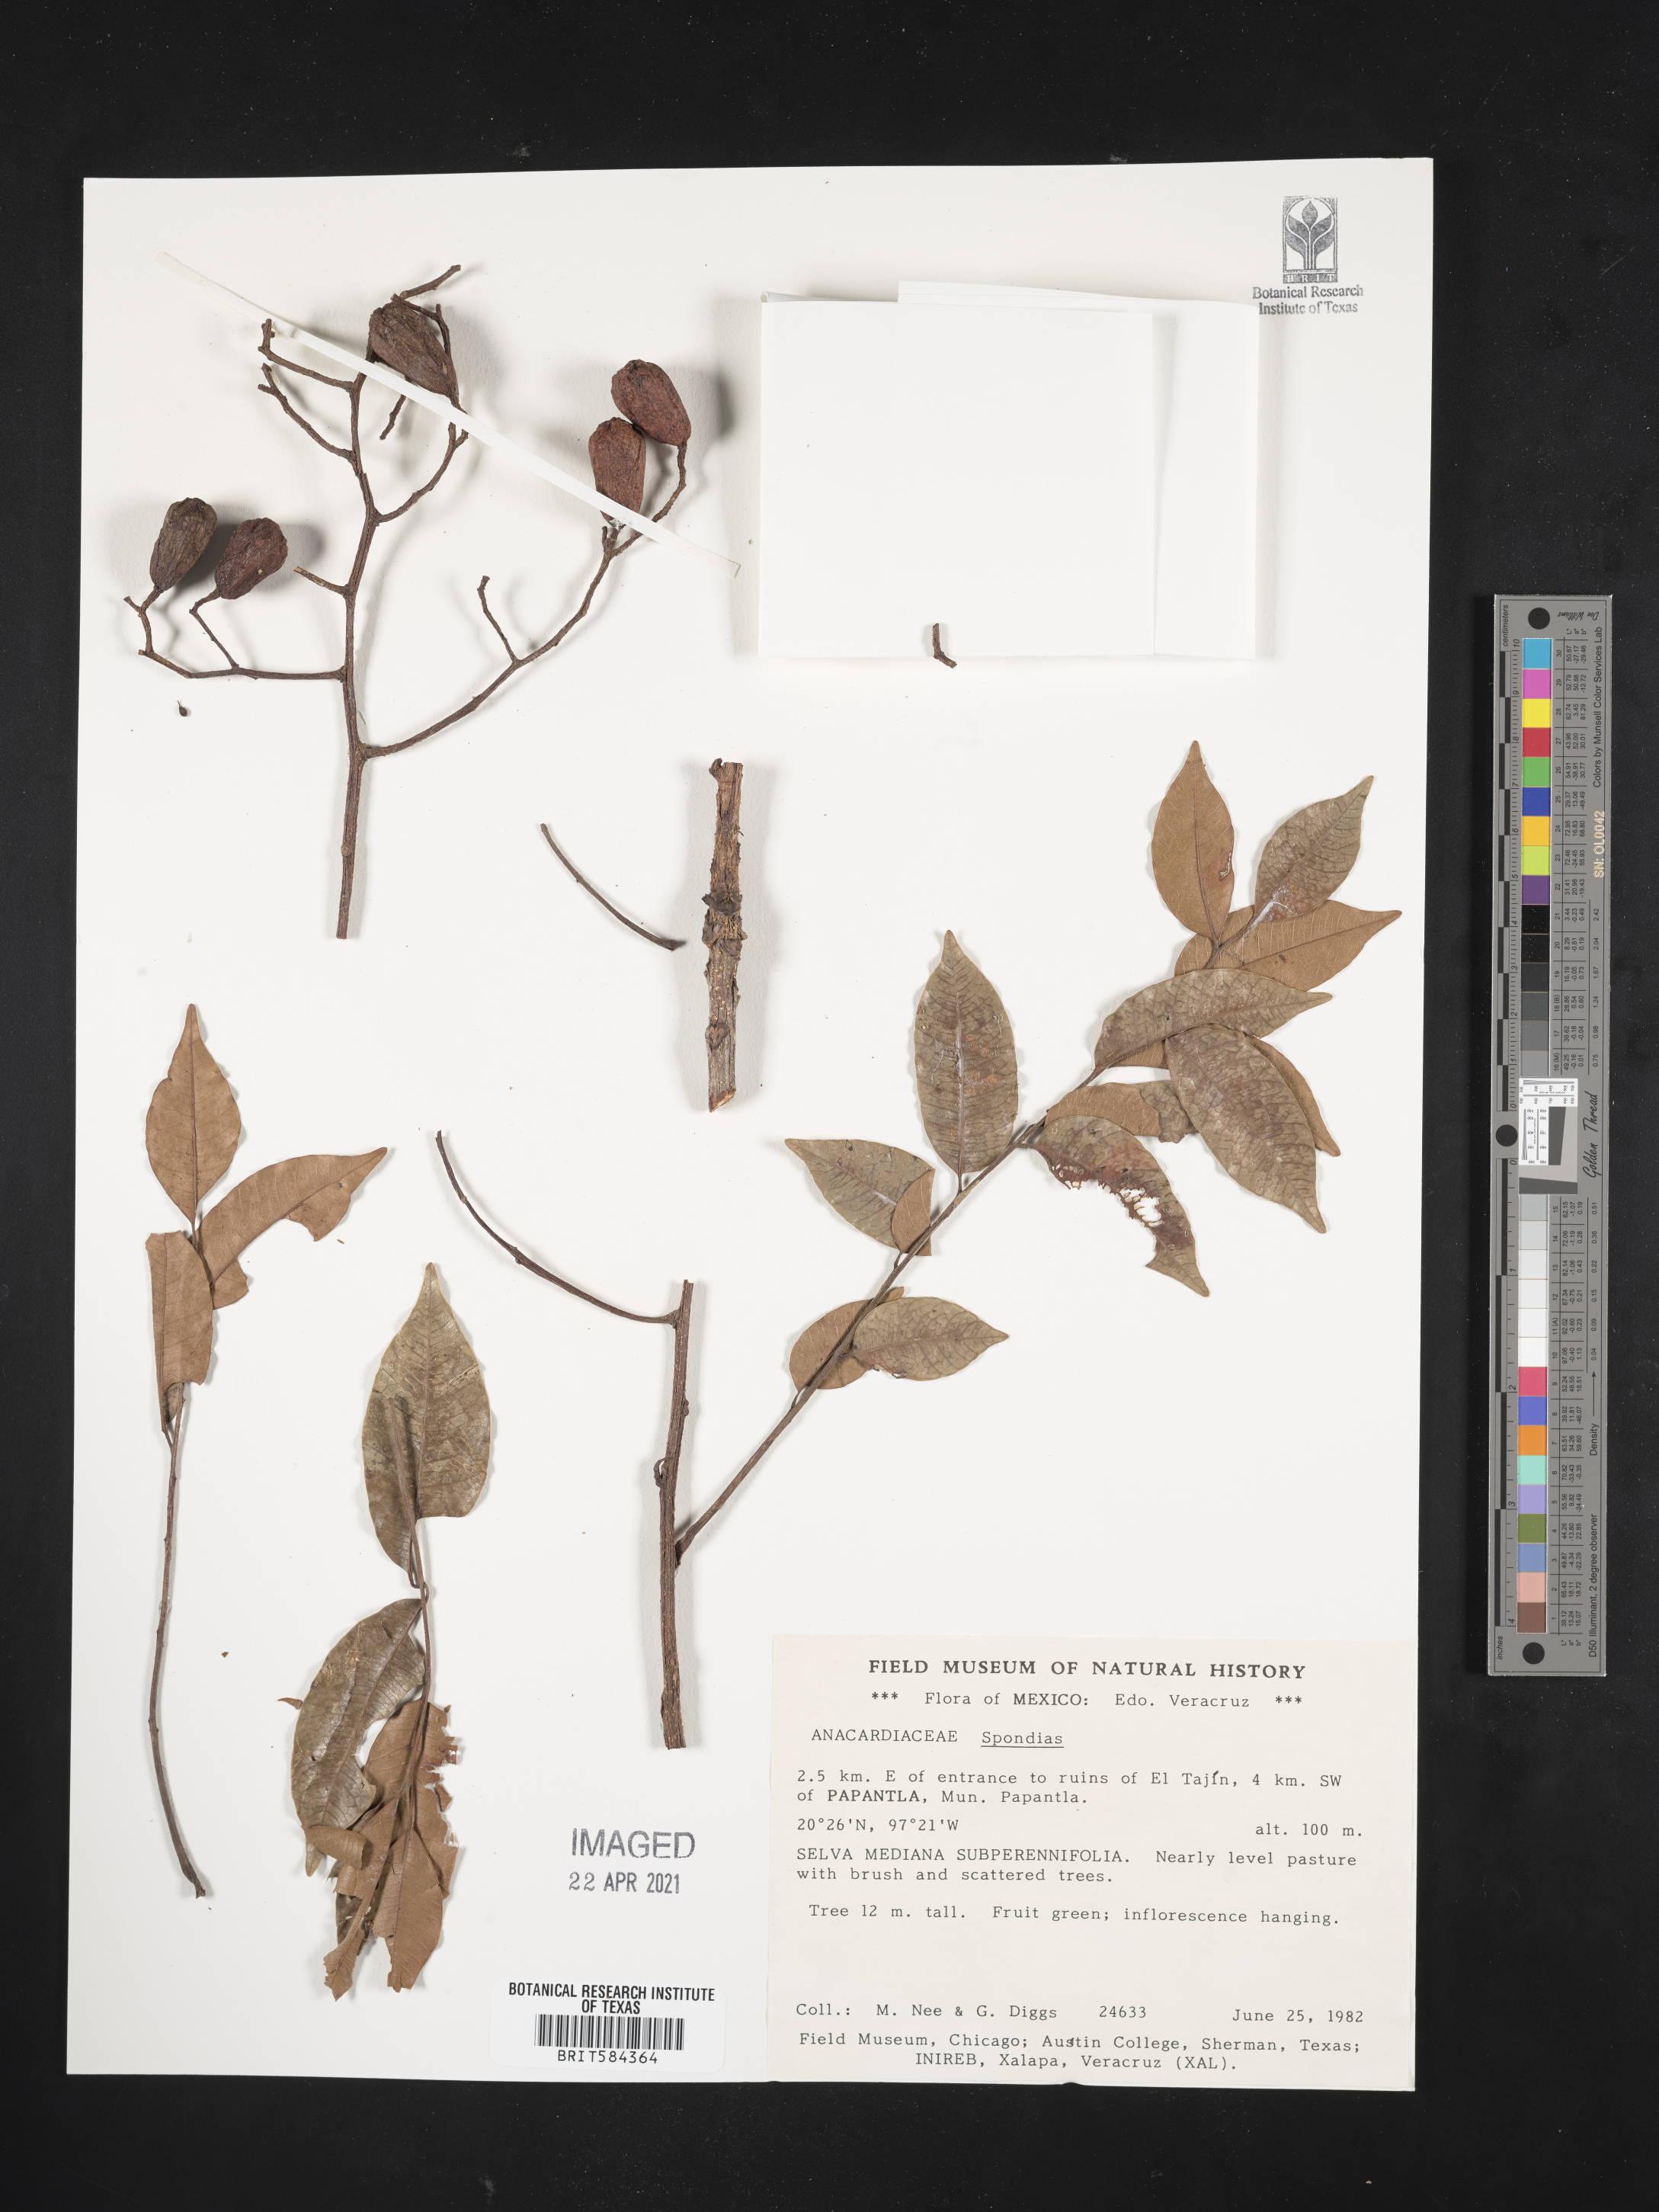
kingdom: Plantae
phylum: Tracheophyta
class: Magnoliopsida
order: Sapindales
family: Anacardiaceae
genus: Spondias
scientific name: Spondias
